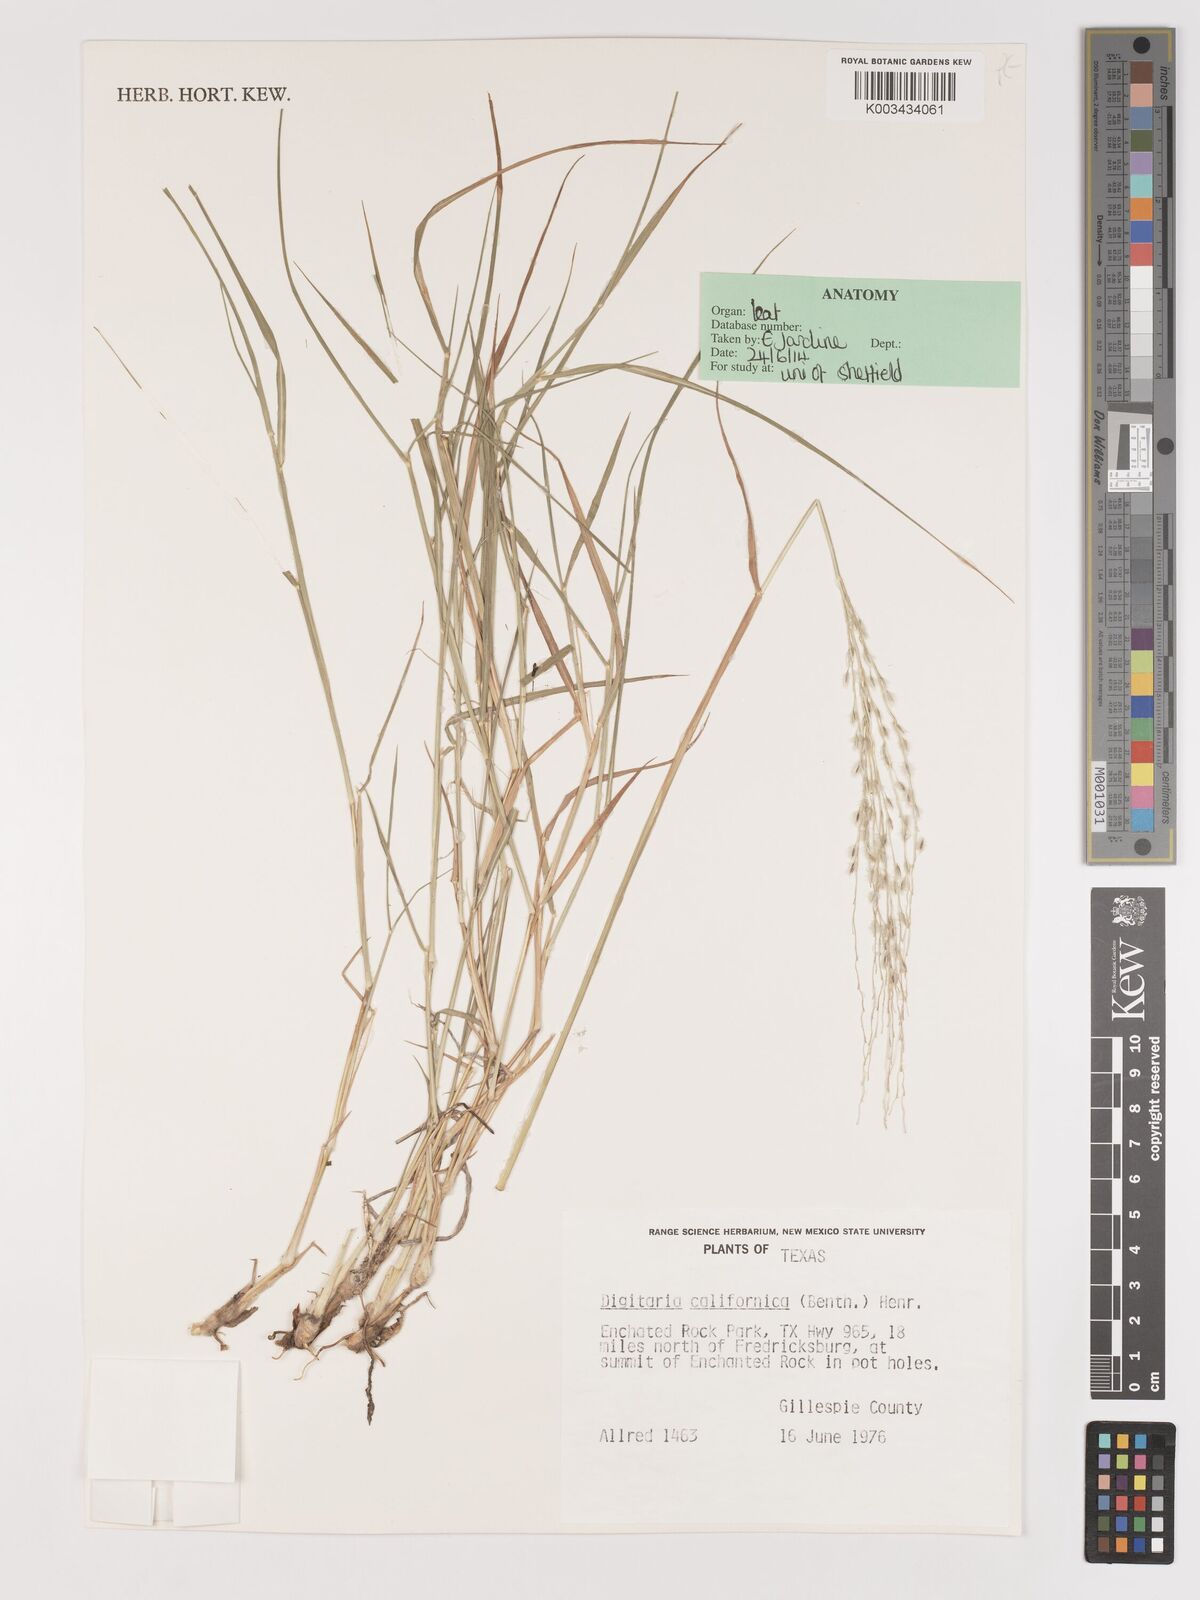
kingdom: Plantae
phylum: Tracheophyta
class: Liliopsida
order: Poales
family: Poaceae
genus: Digitaria
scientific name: Digitaria californica
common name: Arizona cottontop
